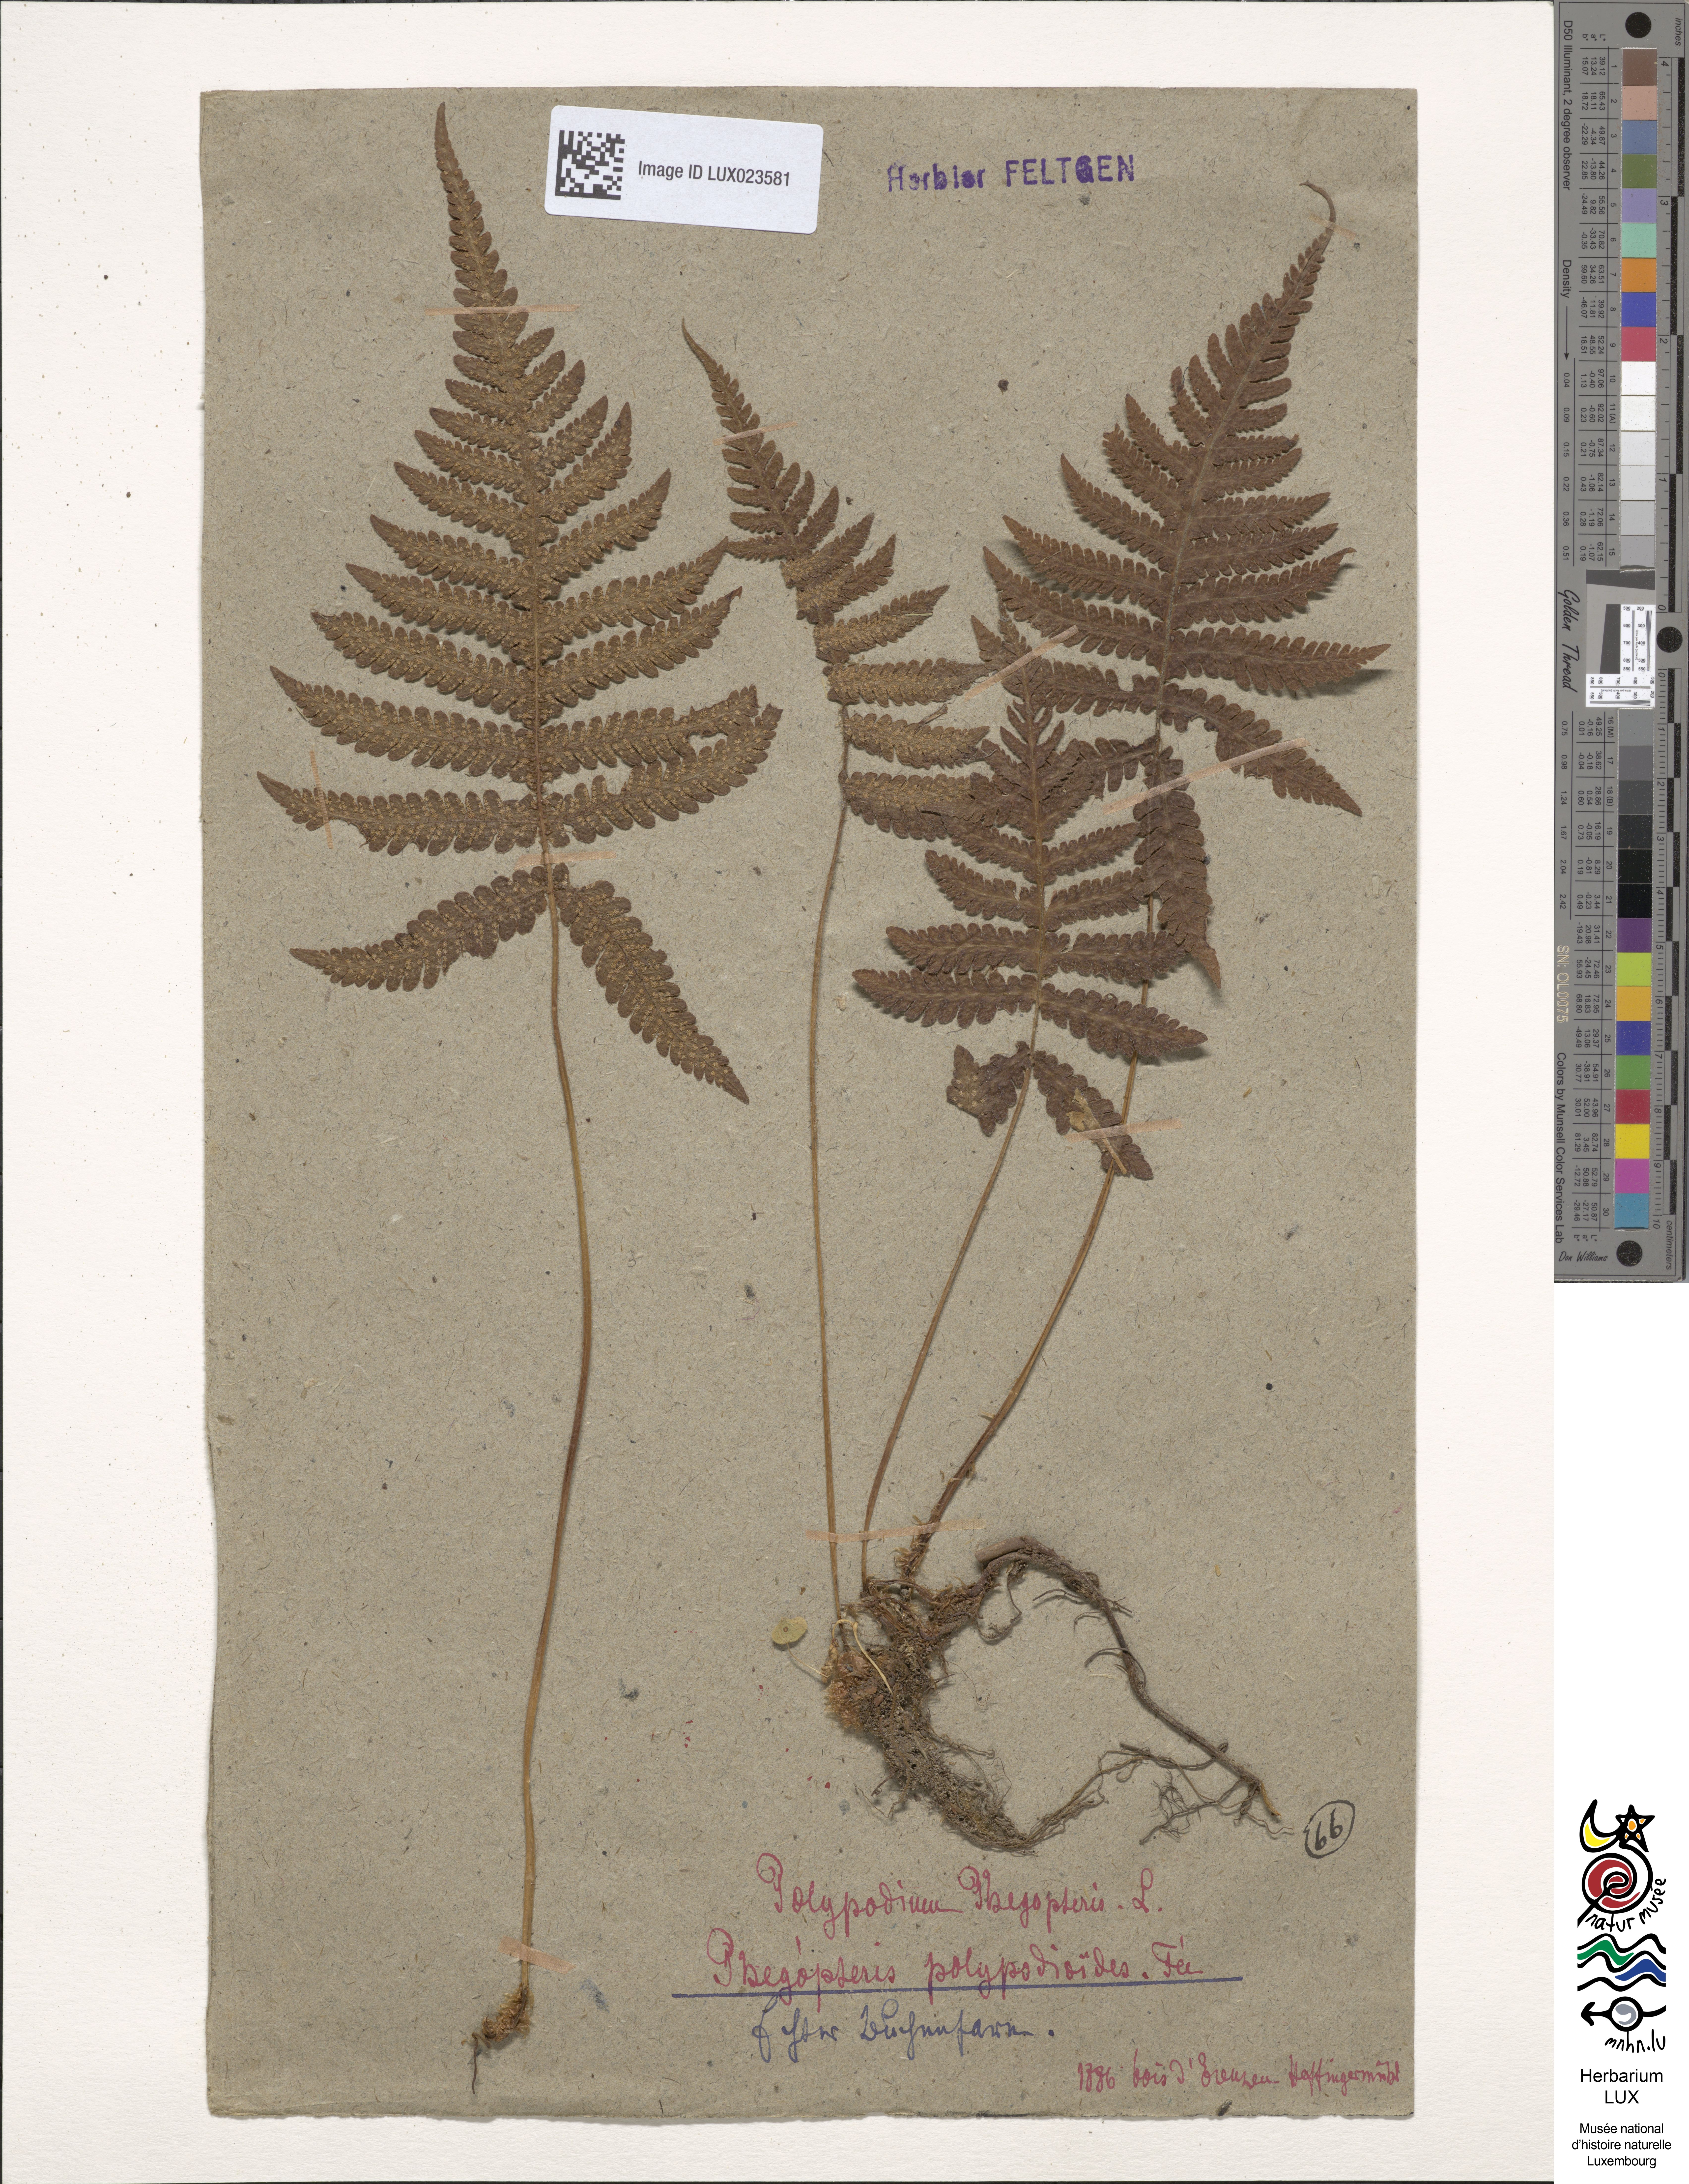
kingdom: Plantae
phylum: Tracheophyta
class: Polypodiopsida
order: Polypodiales
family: Thelypteridaceae
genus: Phegopteris
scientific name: Phegopteris connectilis
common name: Beech fern
